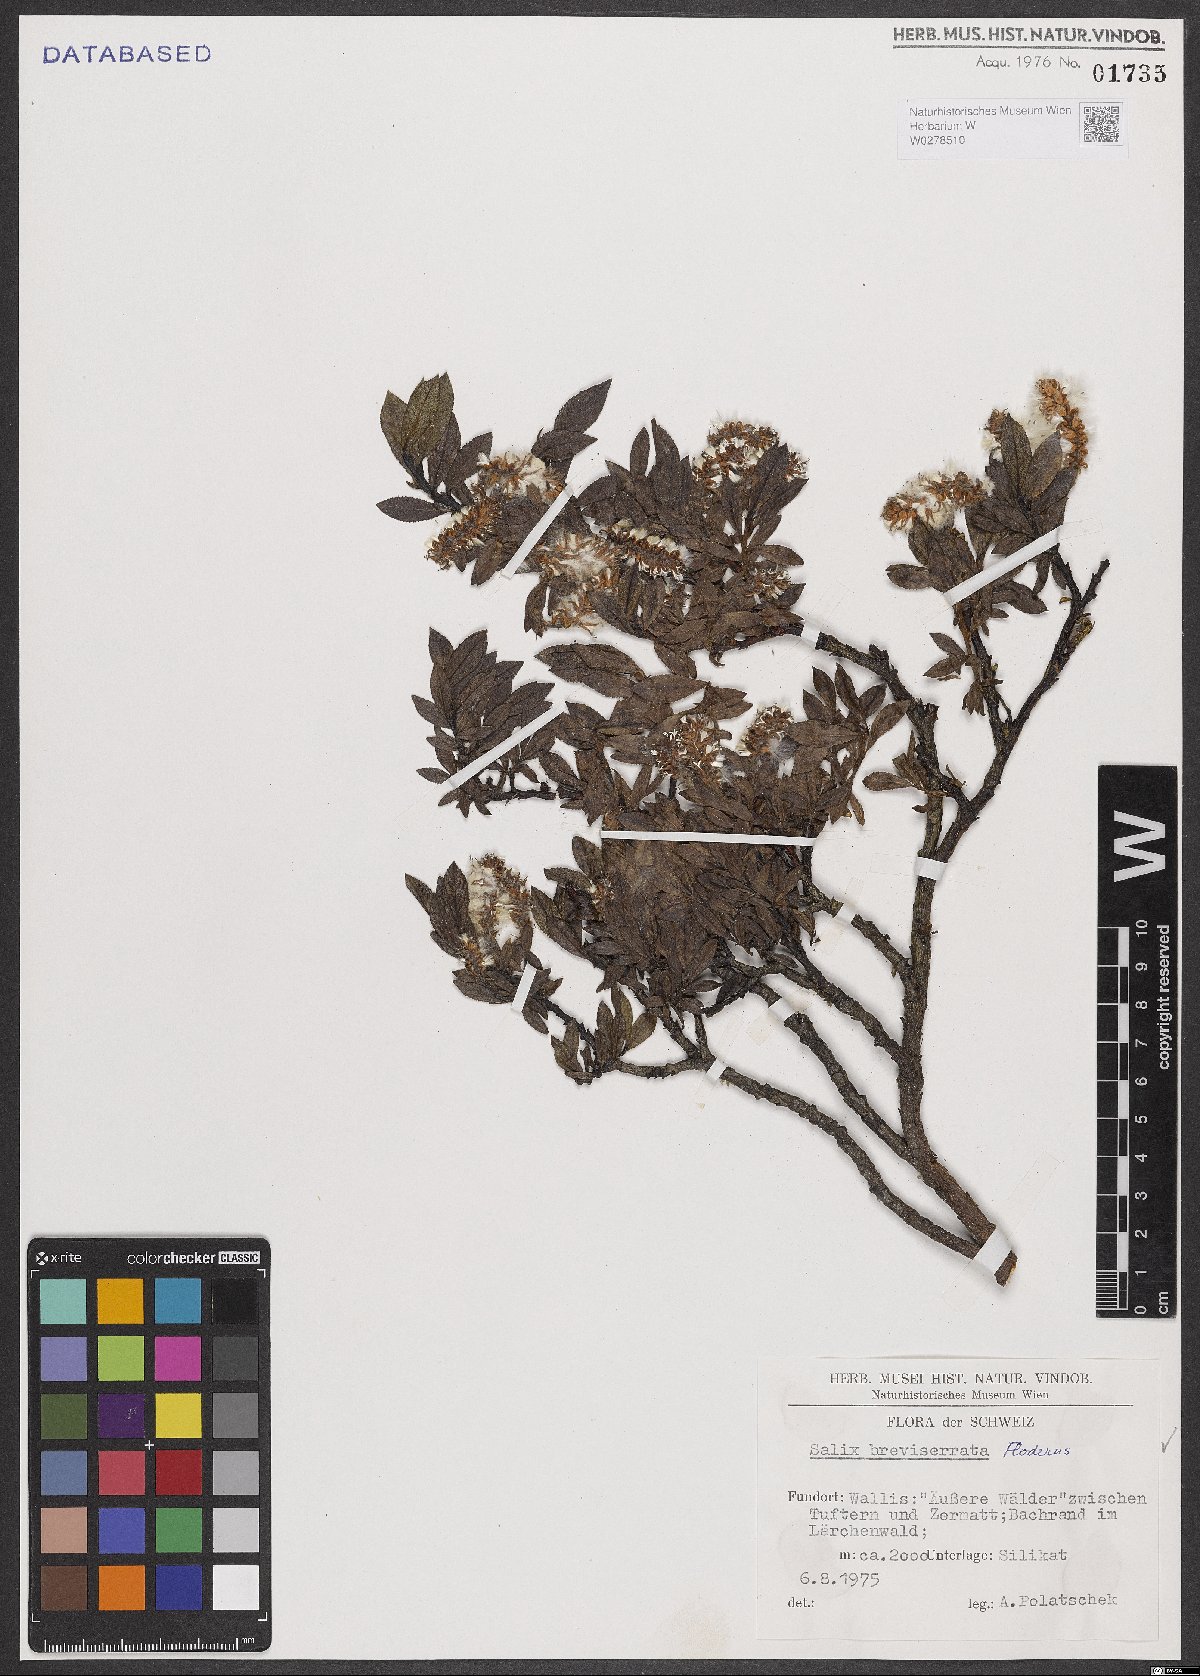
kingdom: Plantae
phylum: Tracheophyta
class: Magnoliopsida
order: Malpighiales
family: Salicaceae
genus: Salix
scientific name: Salix breviserrata
